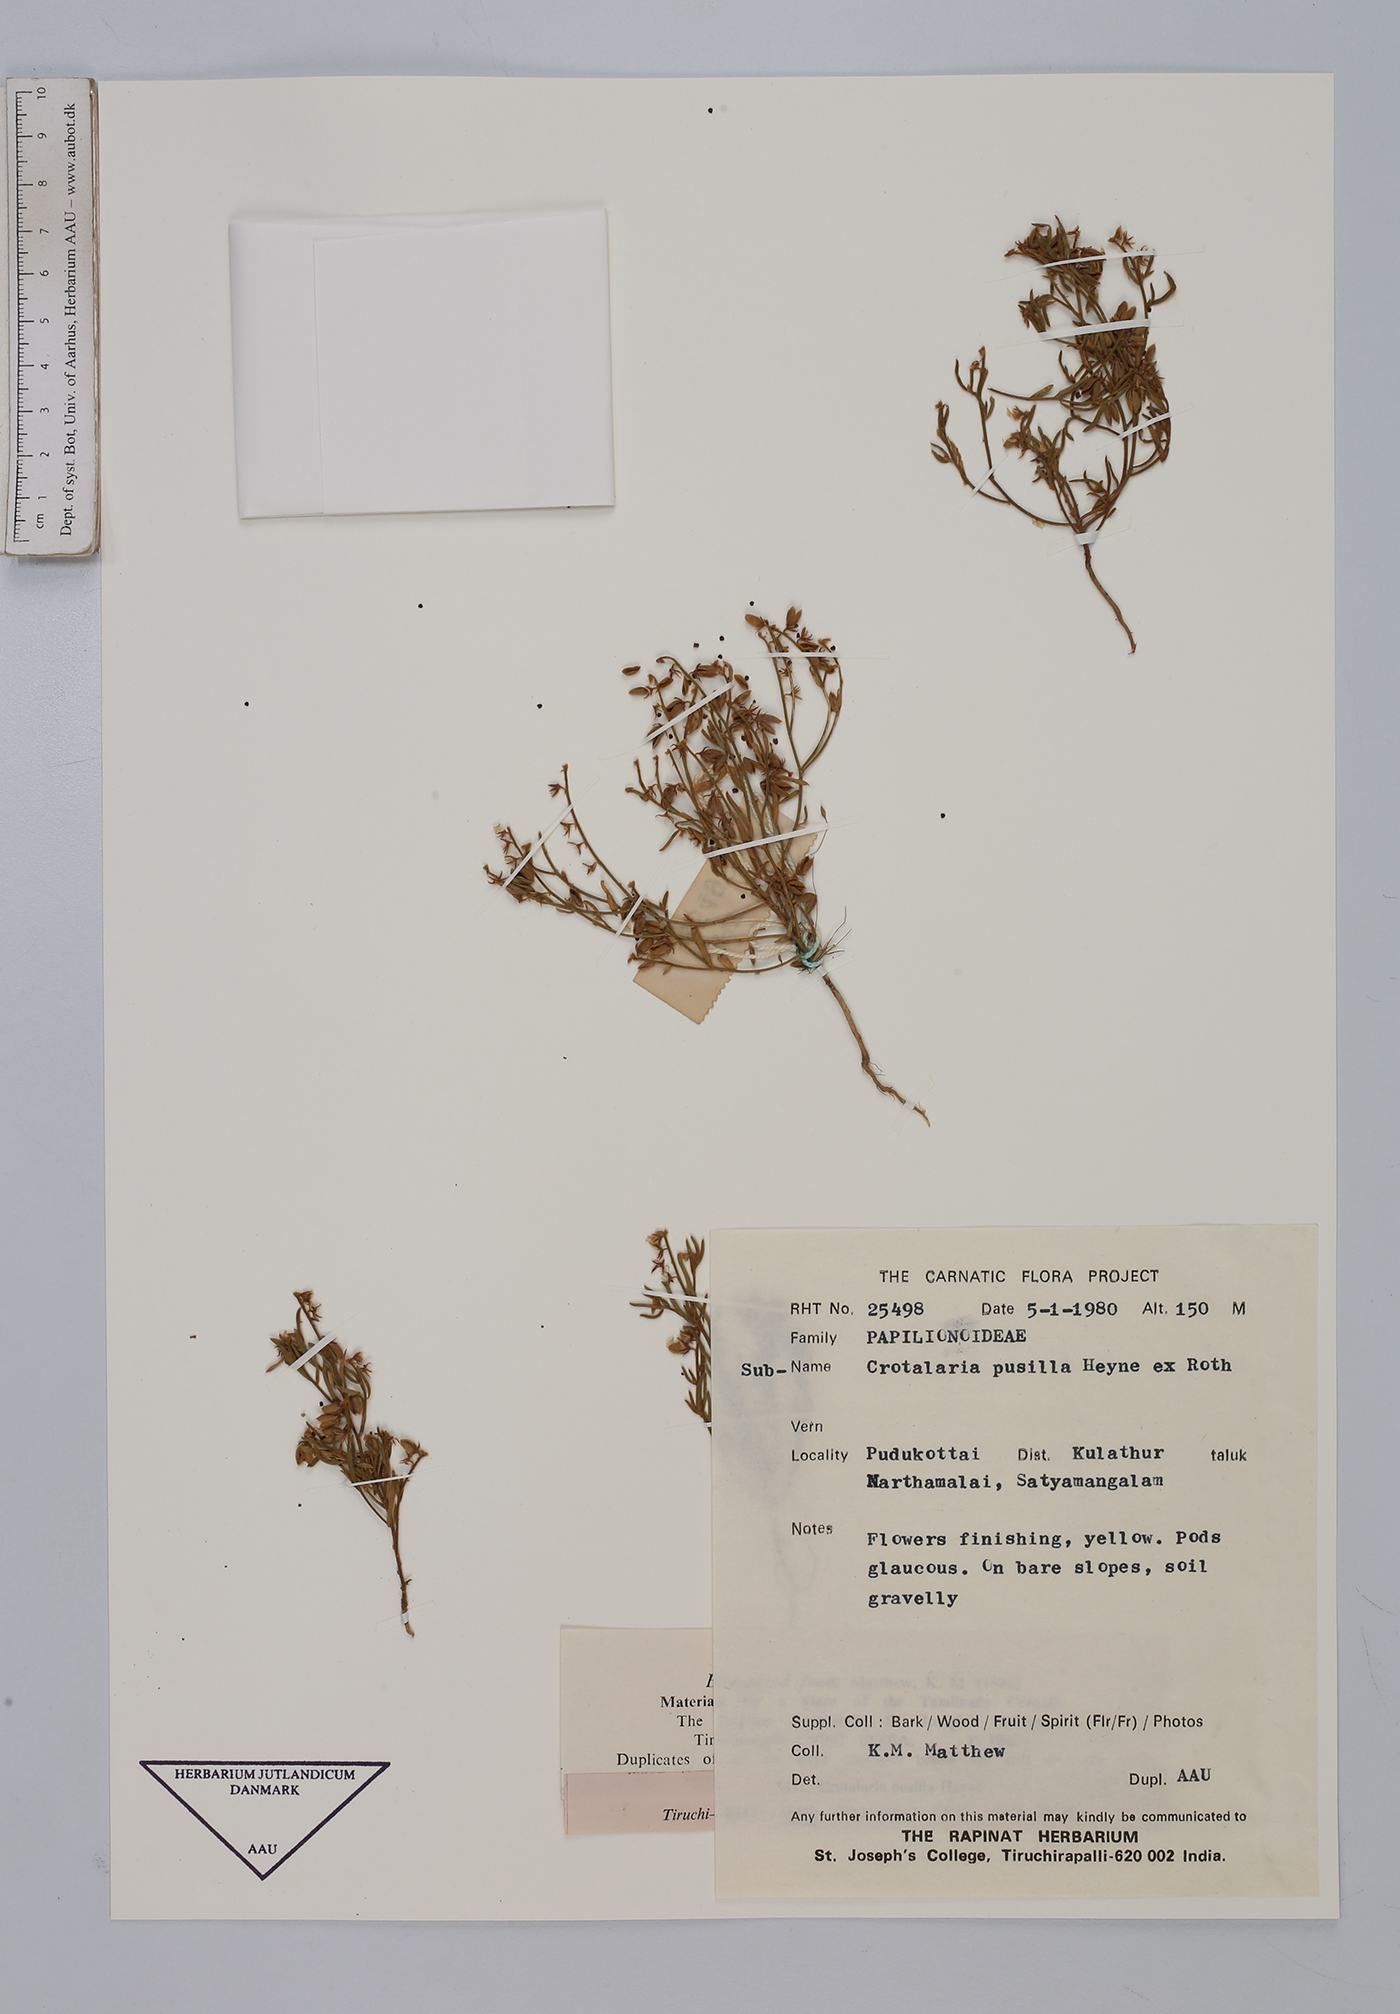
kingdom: Plantae
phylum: Tracheophyta
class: Magnoliopsida
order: Fabales
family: Fabaceae
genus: Crotalaria
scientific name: Crotalaria pusilla
